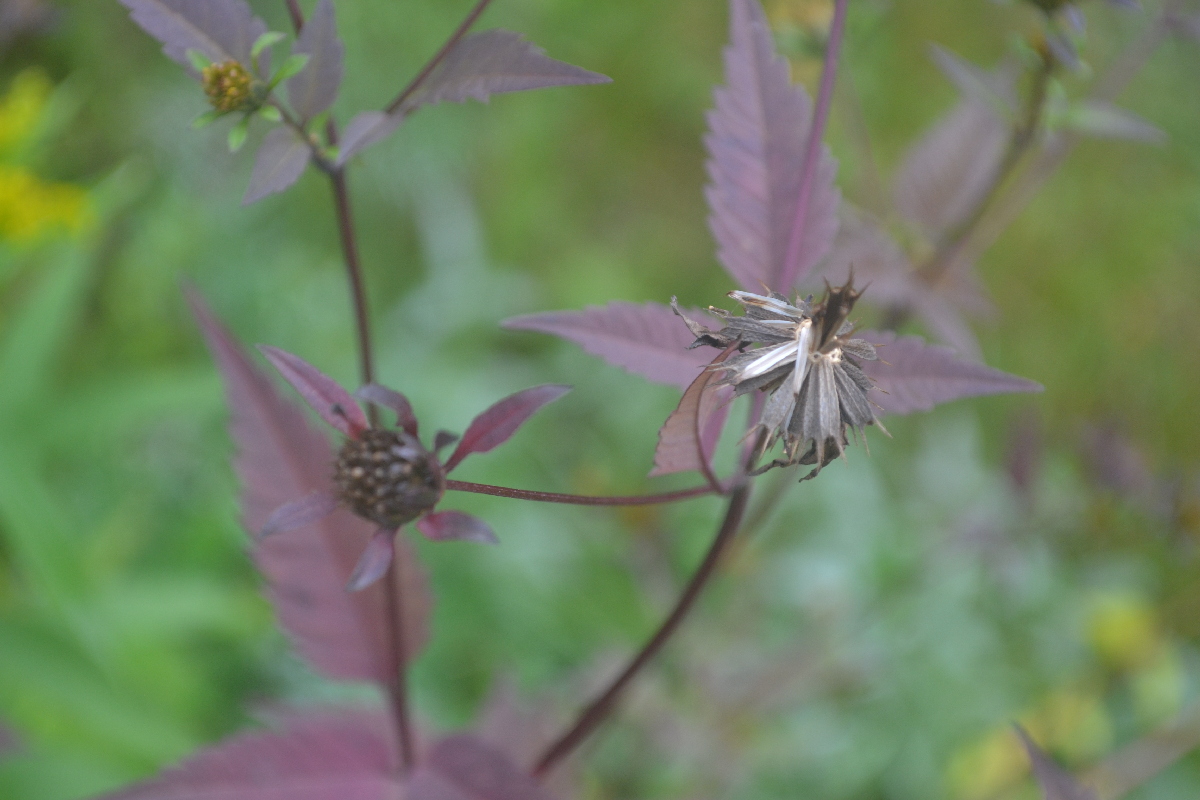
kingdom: Plantae
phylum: Tracheophyta
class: Magnoliopsida
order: Asterales
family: Asteraceae
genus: Bidens
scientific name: Bidens frondosa
